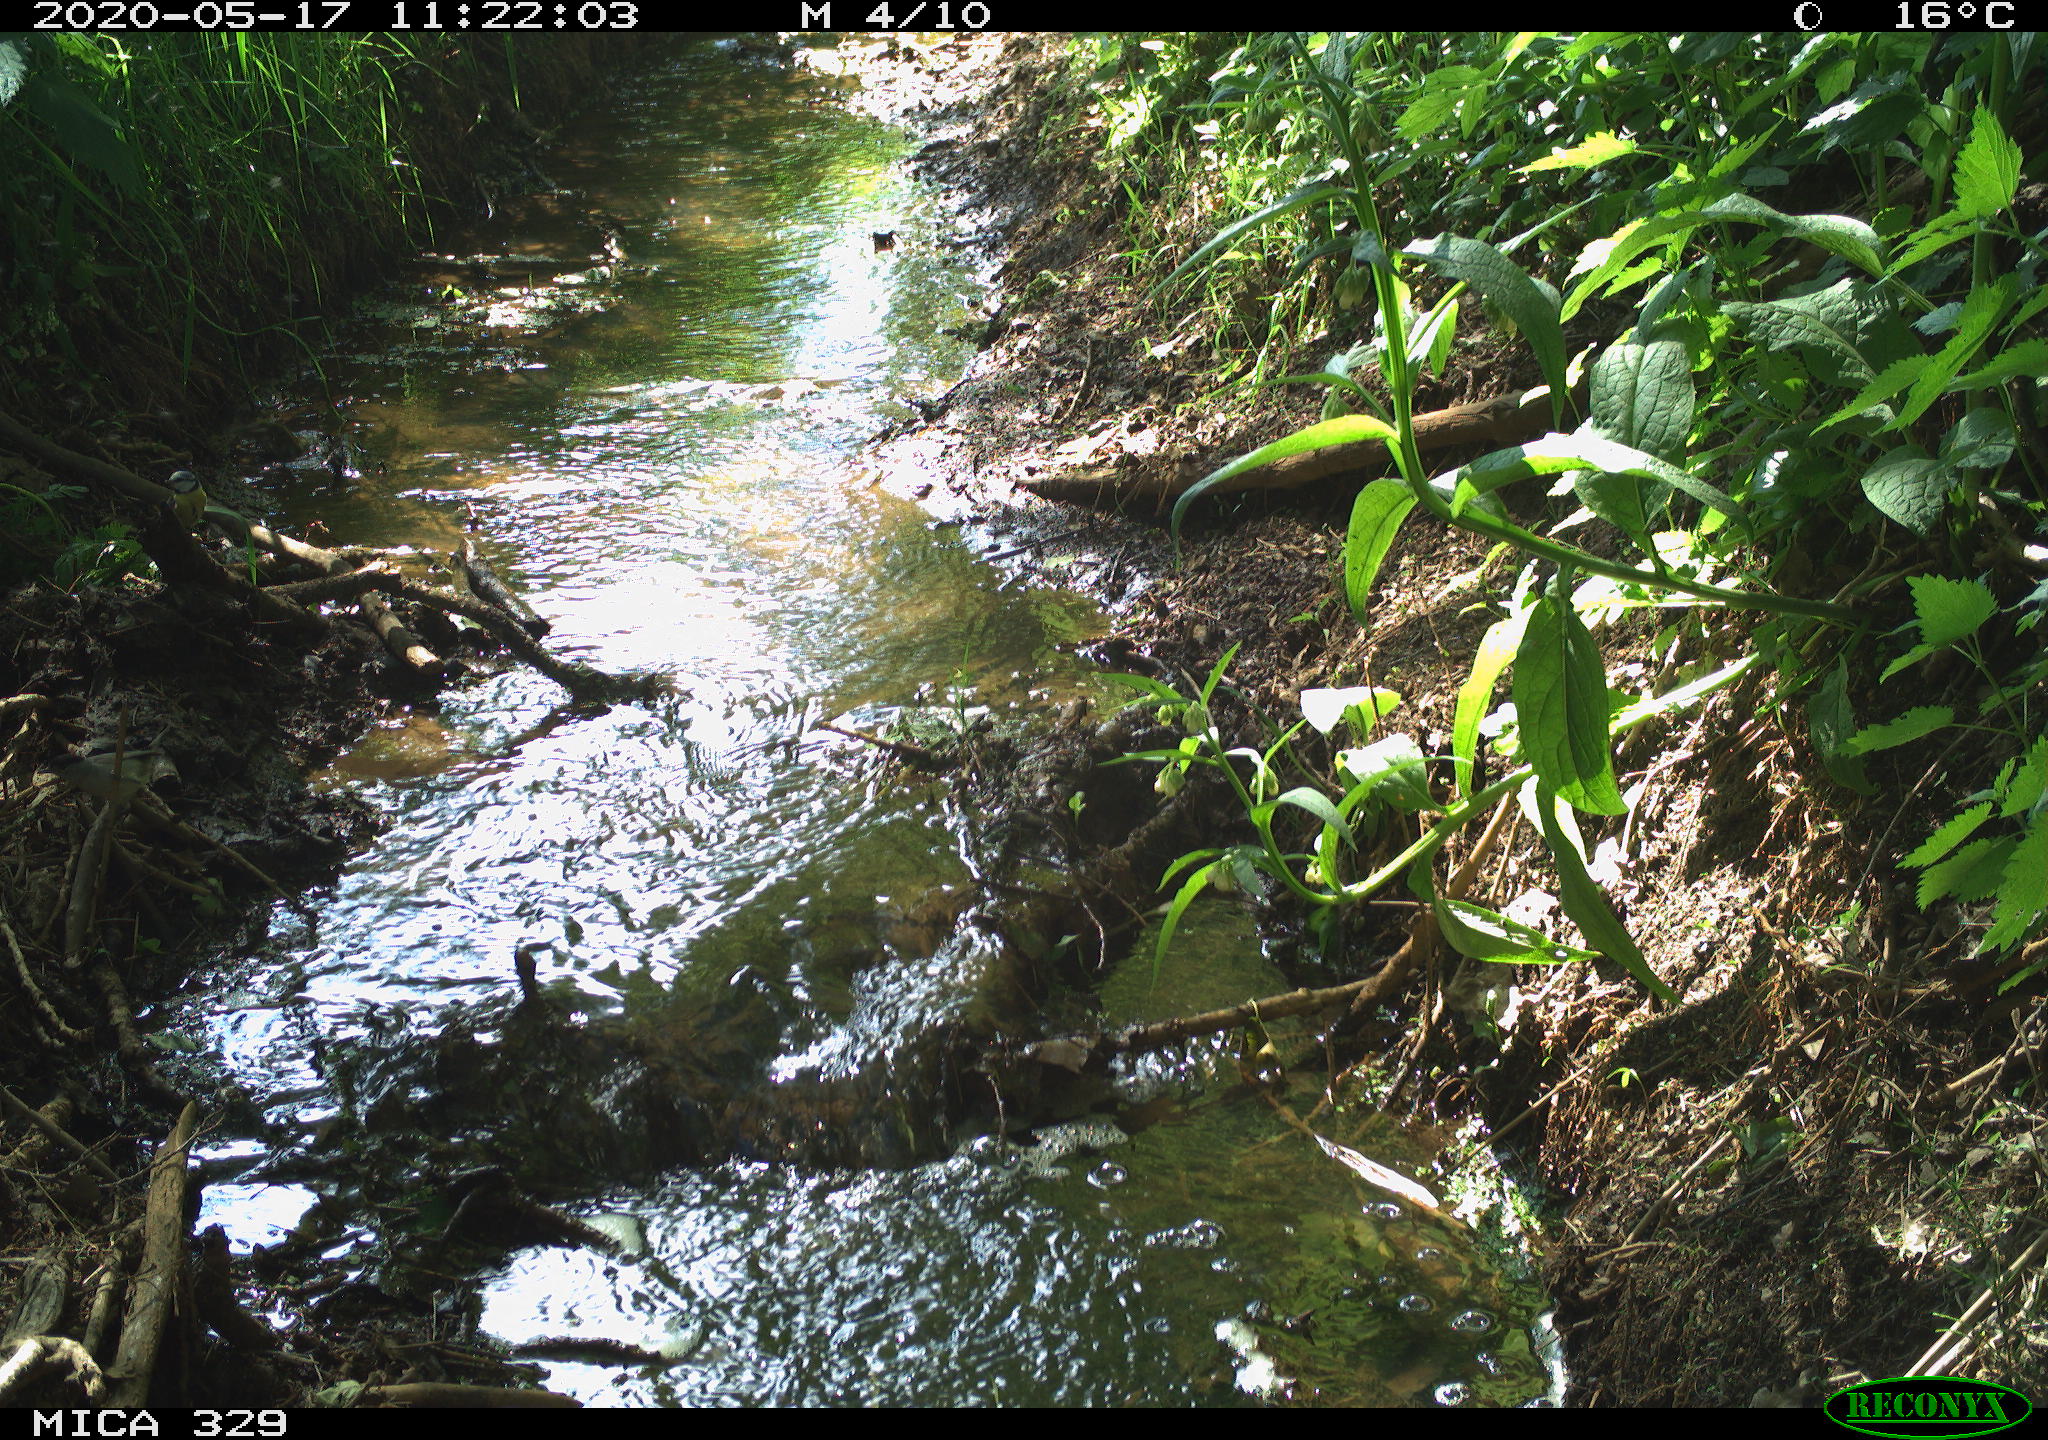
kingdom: Animalia
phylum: Chordata
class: Aves
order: Passeriformes
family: Paridae
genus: Cyanistes
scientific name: Cyanistes caeruleus
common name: Eurasian blue tit
